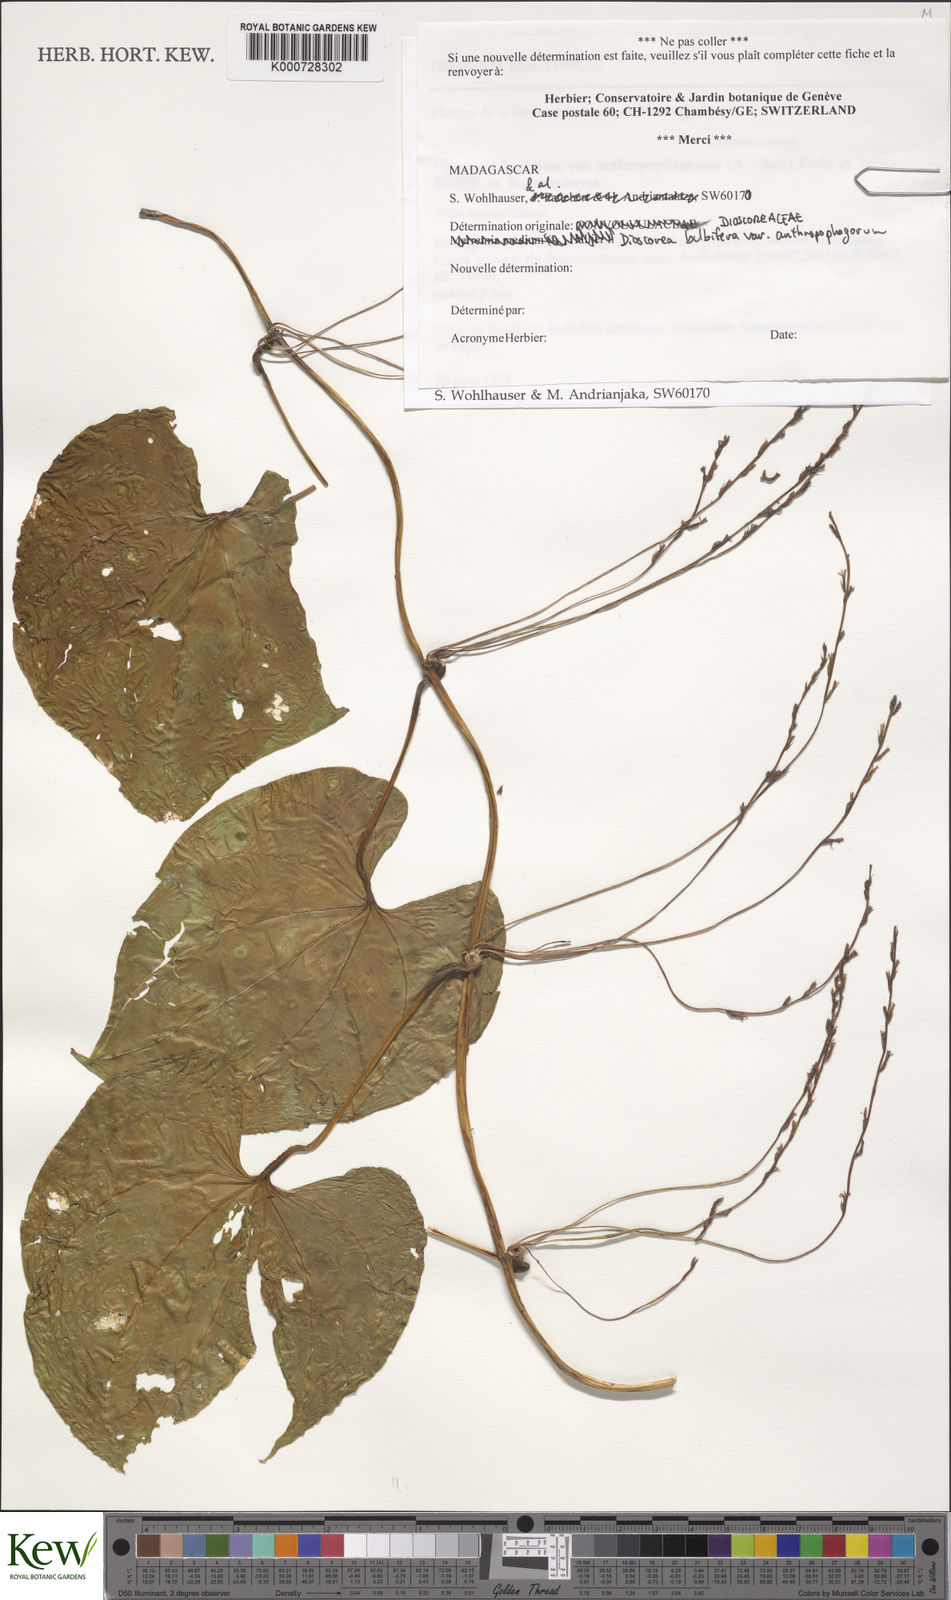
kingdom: Plantae
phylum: Tracheophyta
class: Liliopsida
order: Dioscoreales
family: Dioscoreaceae
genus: Dioscorea
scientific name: Dioscorea bulbifera
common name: Air yam
